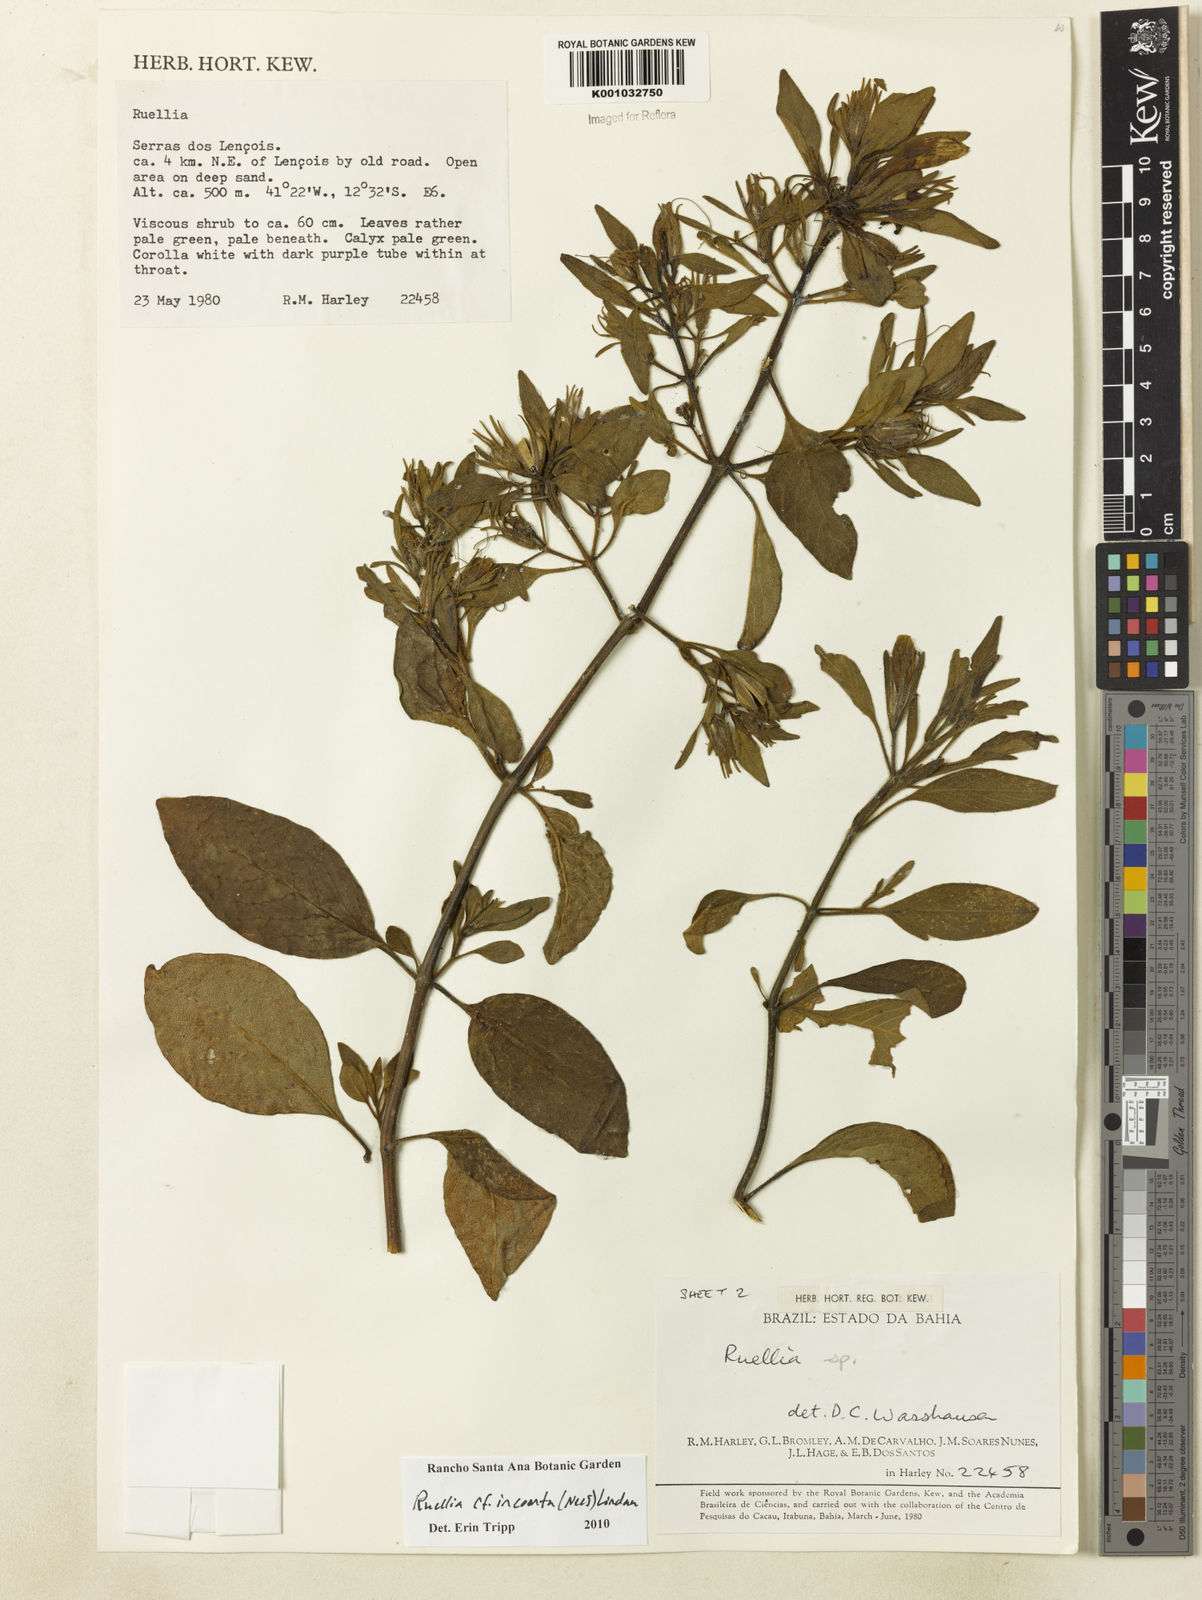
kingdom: Plantae
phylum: Tracheophyta
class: Magnoliopsida
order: Lamiales
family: Acanthaceae
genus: Ruellia
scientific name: Ruellia
